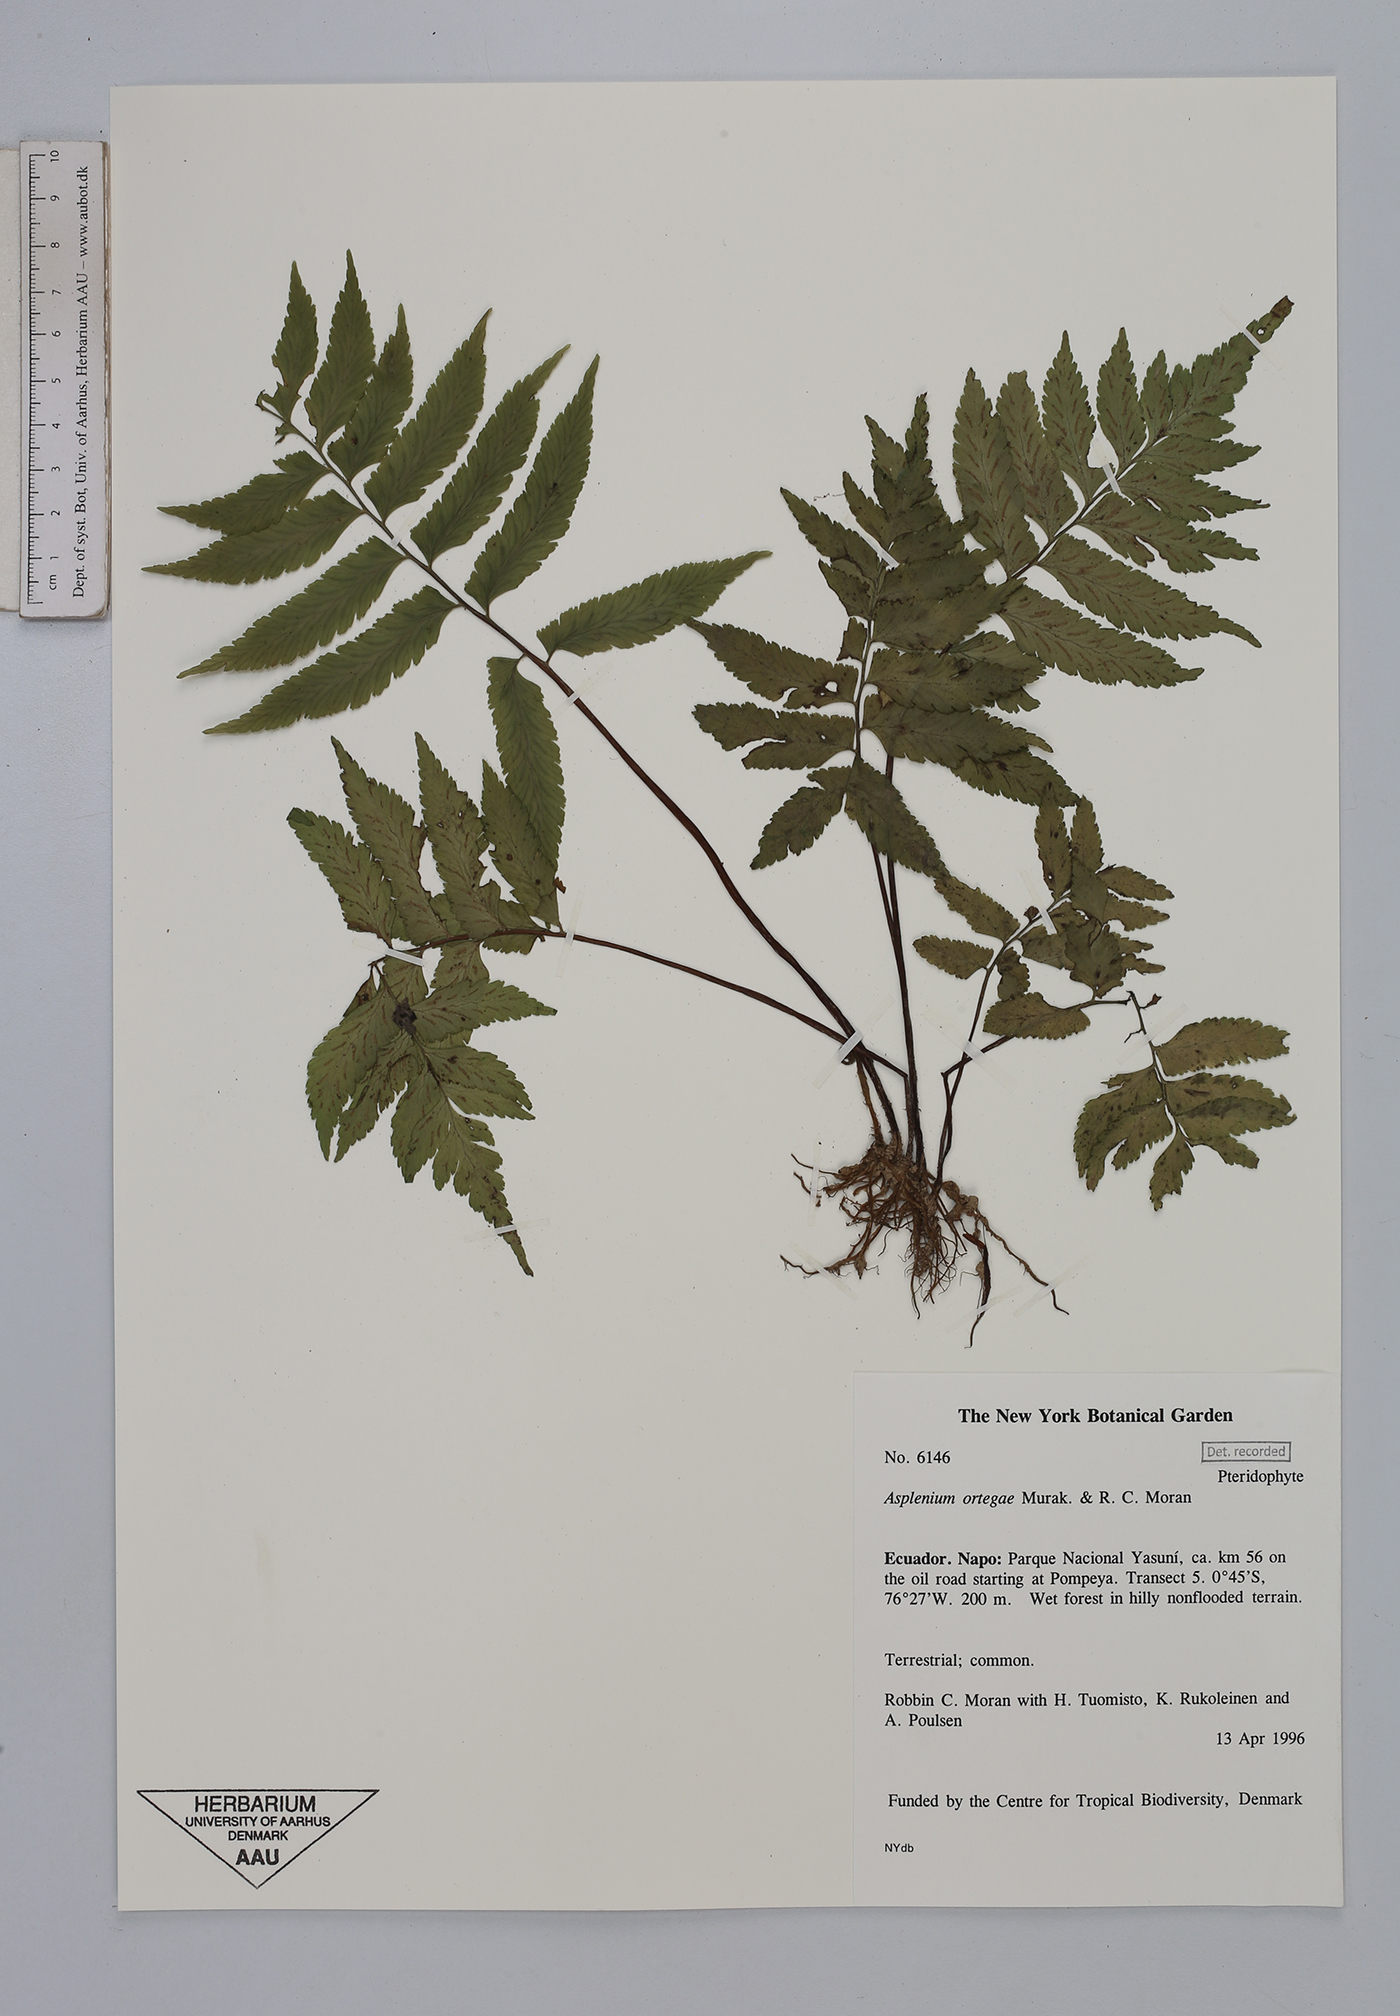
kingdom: Plantae
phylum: Tracheophyta
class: Polypodiopsida
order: Polypodiales
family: Aspleniaceae
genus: Hymenasplenium
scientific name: Hymenasplenium ortegae
